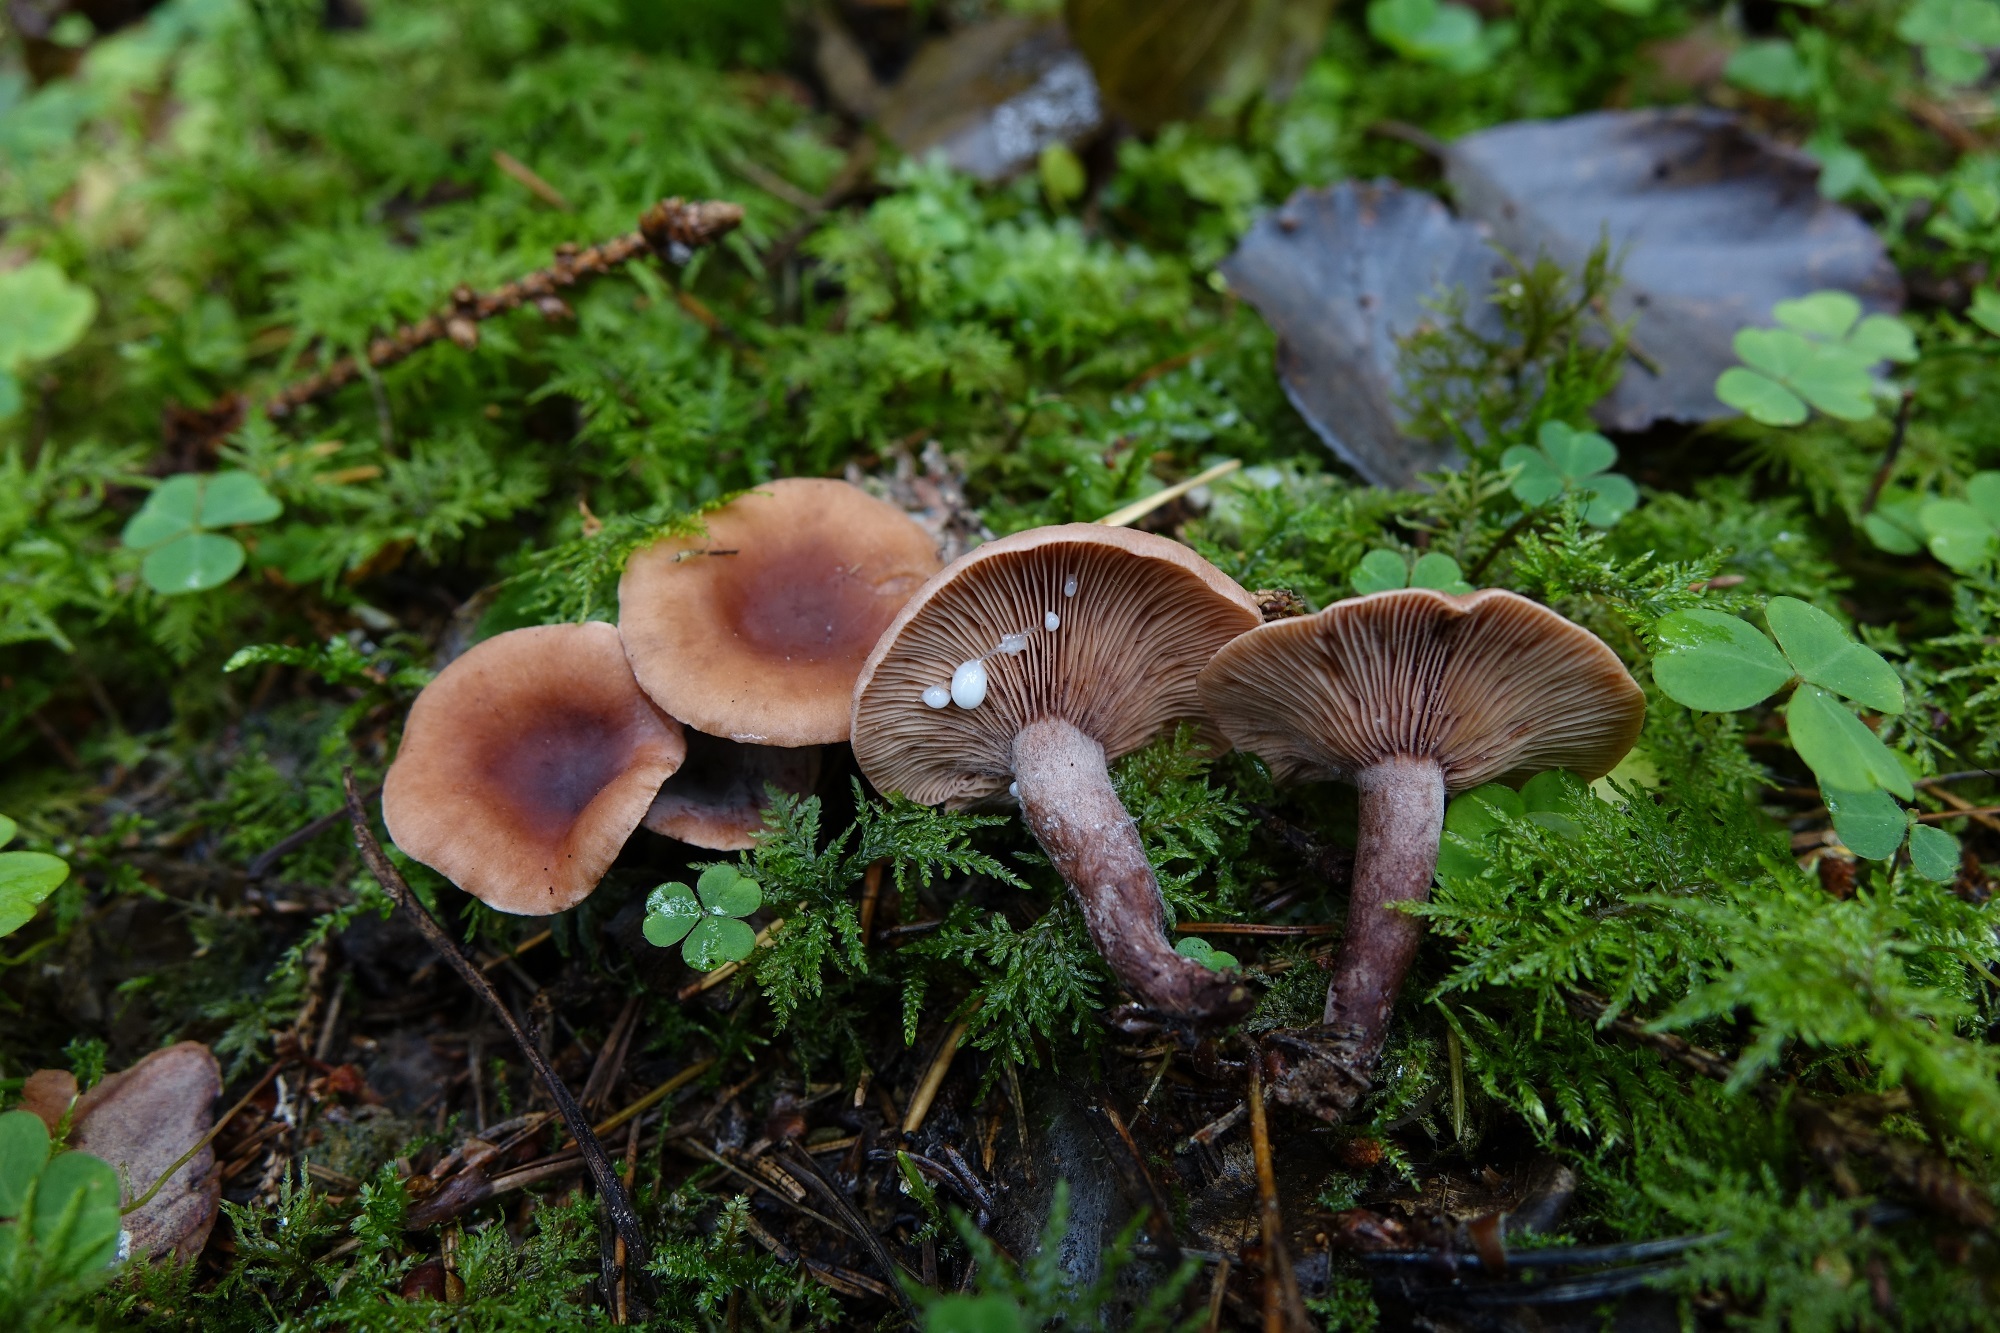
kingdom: Fungi
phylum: Basidiomycota
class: Agaricomycetes
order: Russulales
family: Russulaceae
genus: Lactarius
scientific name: Lactarius camphoratus
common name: Curry milkcap
